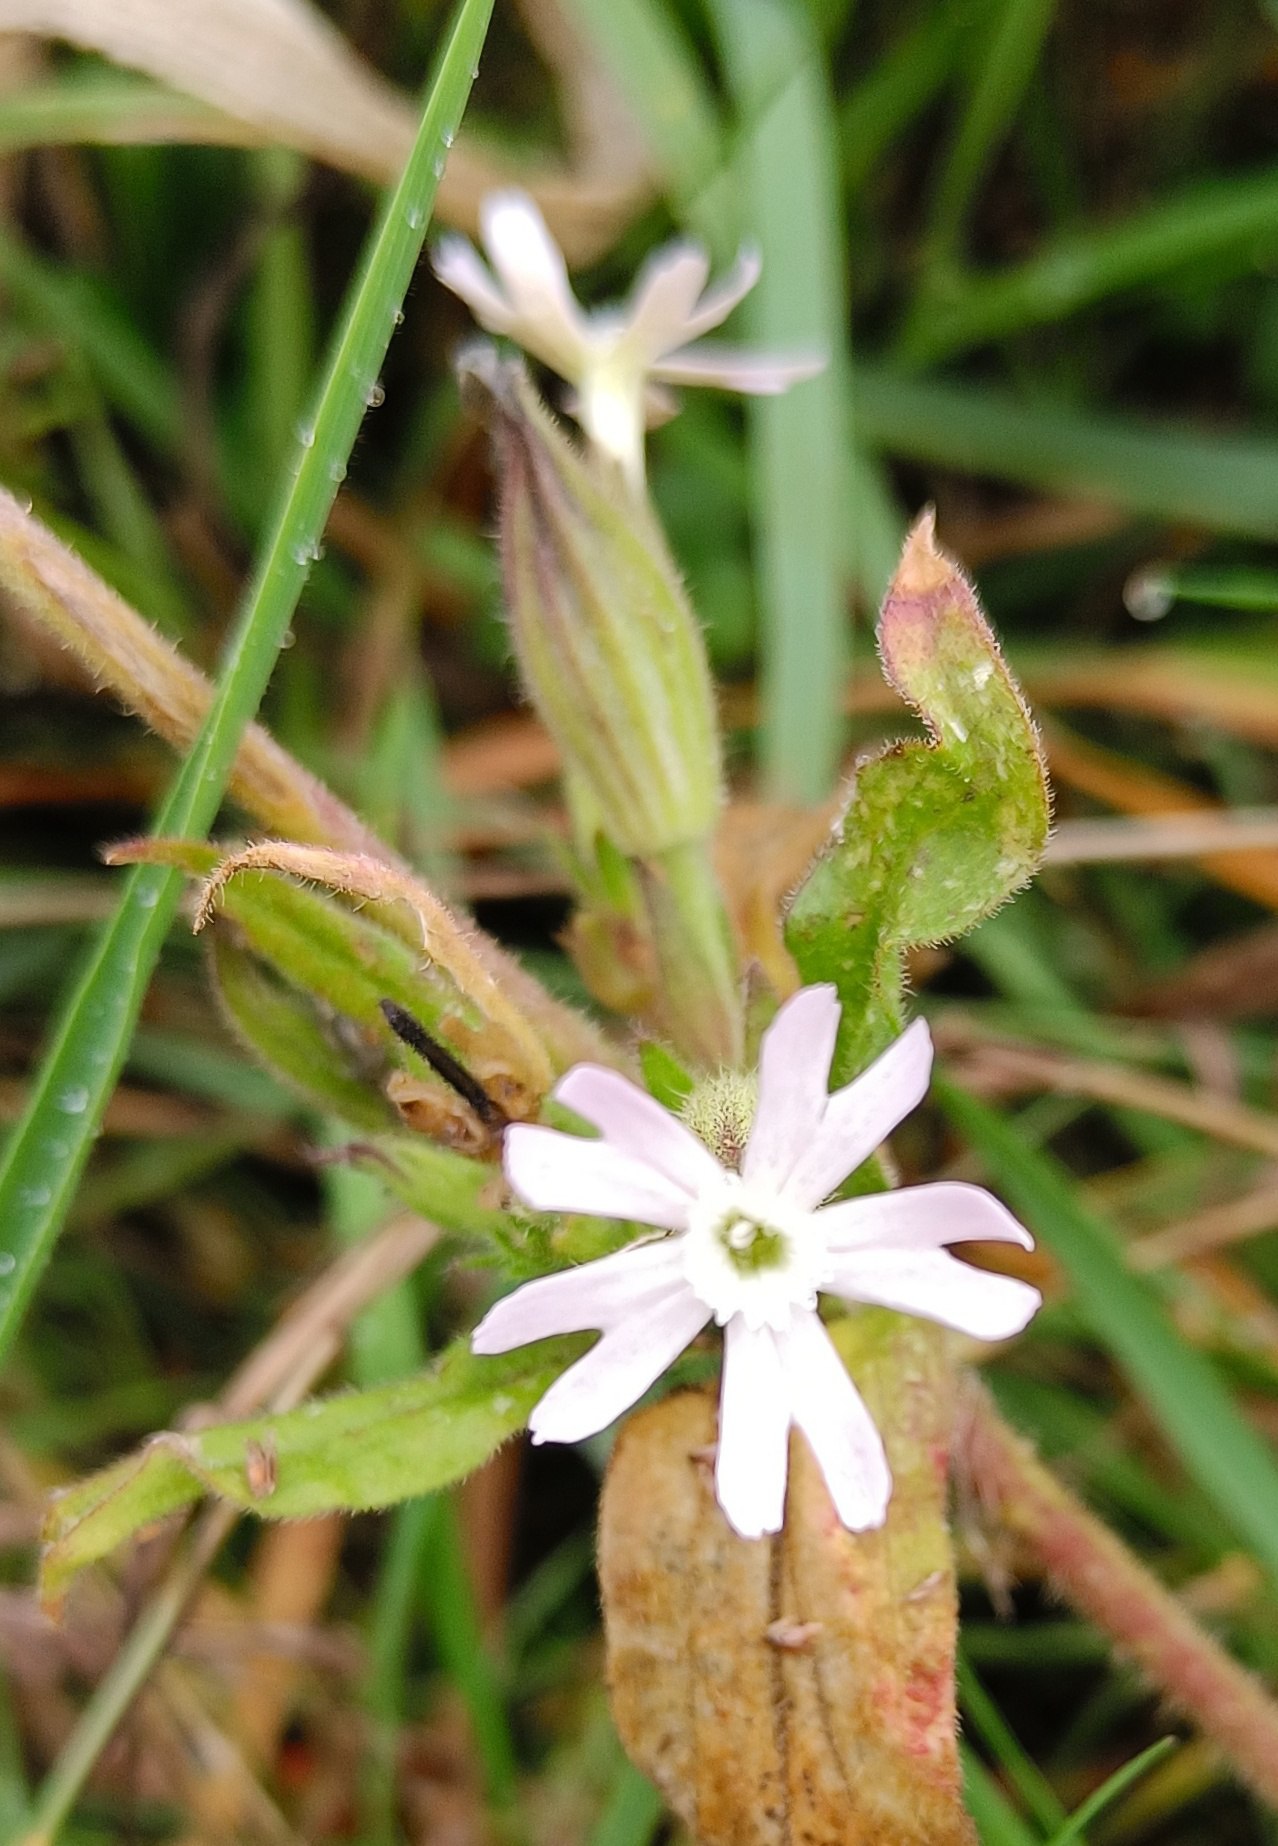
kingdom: Plantae
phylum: Tracheophyta
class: Magnoliopsida
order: Caryophyllales
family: Caryophyllaceae
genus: Silene
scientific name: Silene noctiflora
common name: Nat-limurt
